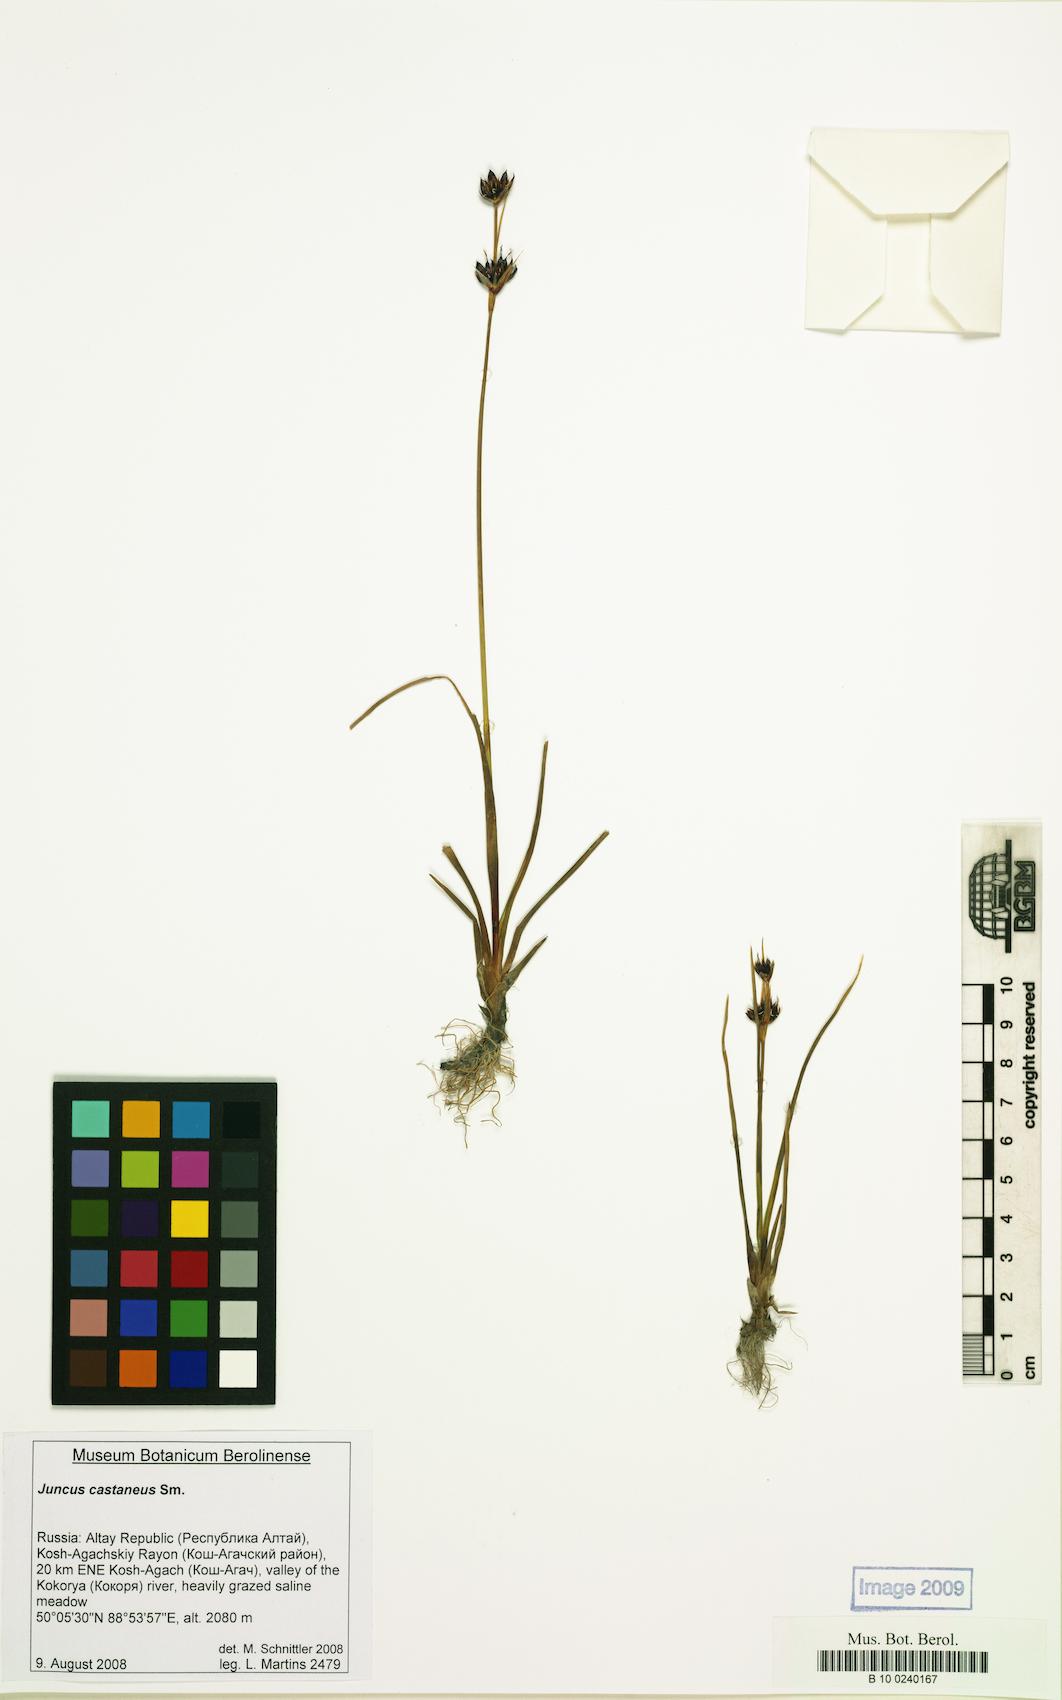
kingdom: Plantae
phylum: Tracheophyta
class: Liliopsida
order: Poales
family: Juncaceae
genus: Juncus
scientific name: Juncus castaneus
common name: Chestnut rush
